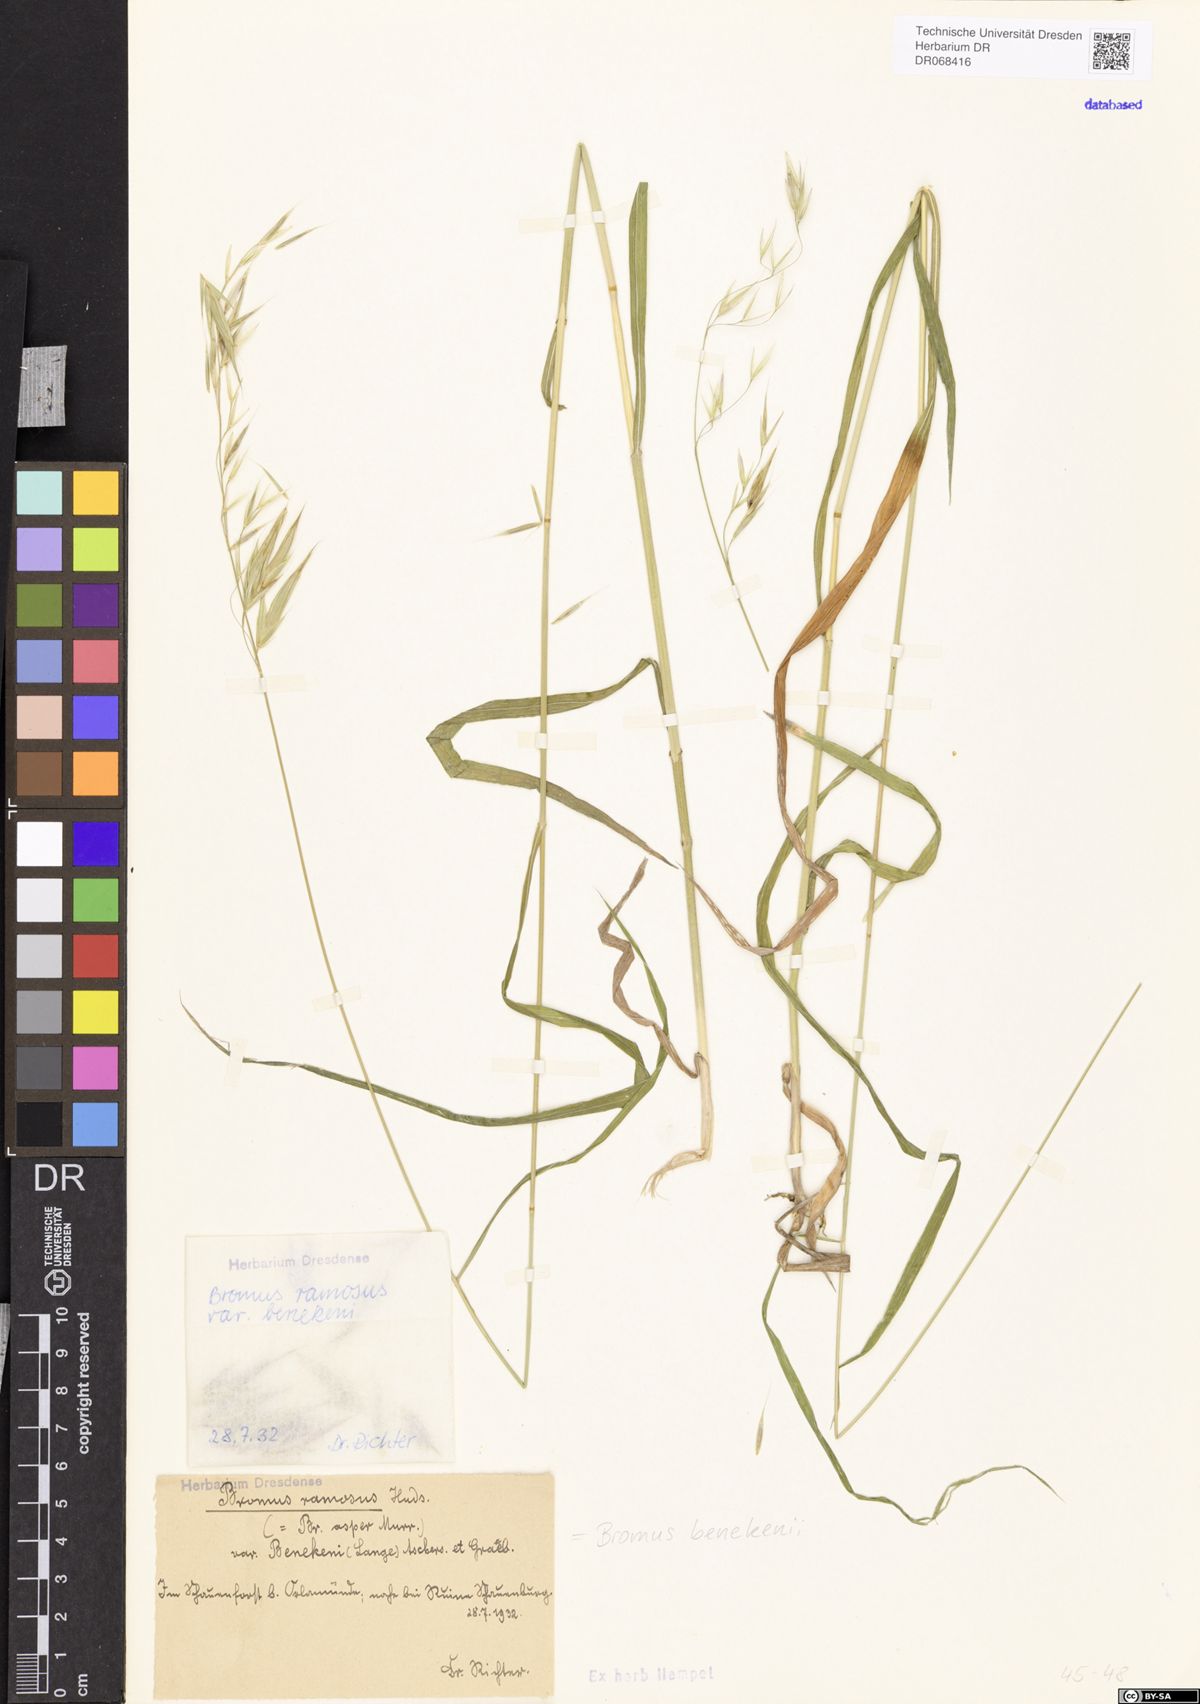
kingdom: Plantae
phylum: Tracheophyta
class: Liliopsida
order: Poales
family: Poaceae
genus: Bromus
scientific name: Bromus benekenii
